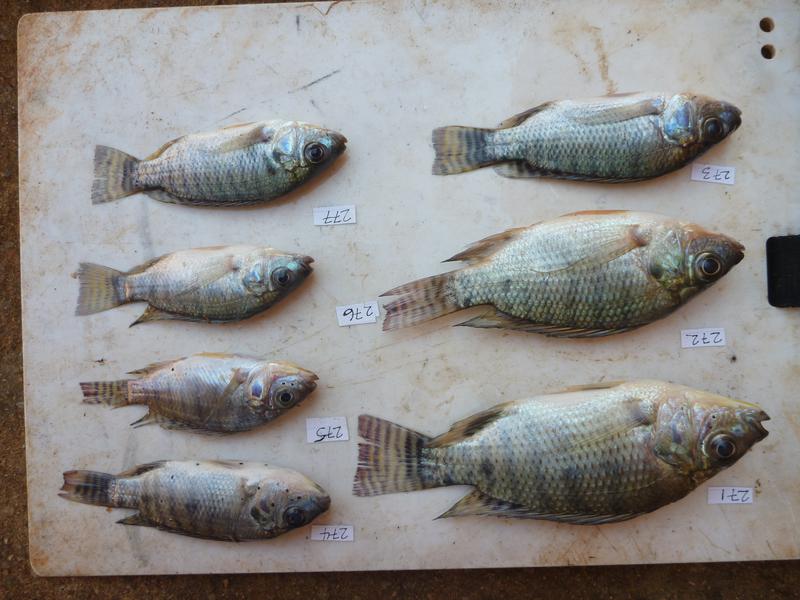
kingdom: Animalia
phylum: Chordata
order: Perciformes
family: Cichlidae
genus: Oreochromis
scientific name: Oreochromis niloticus
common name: Nile tilapia
